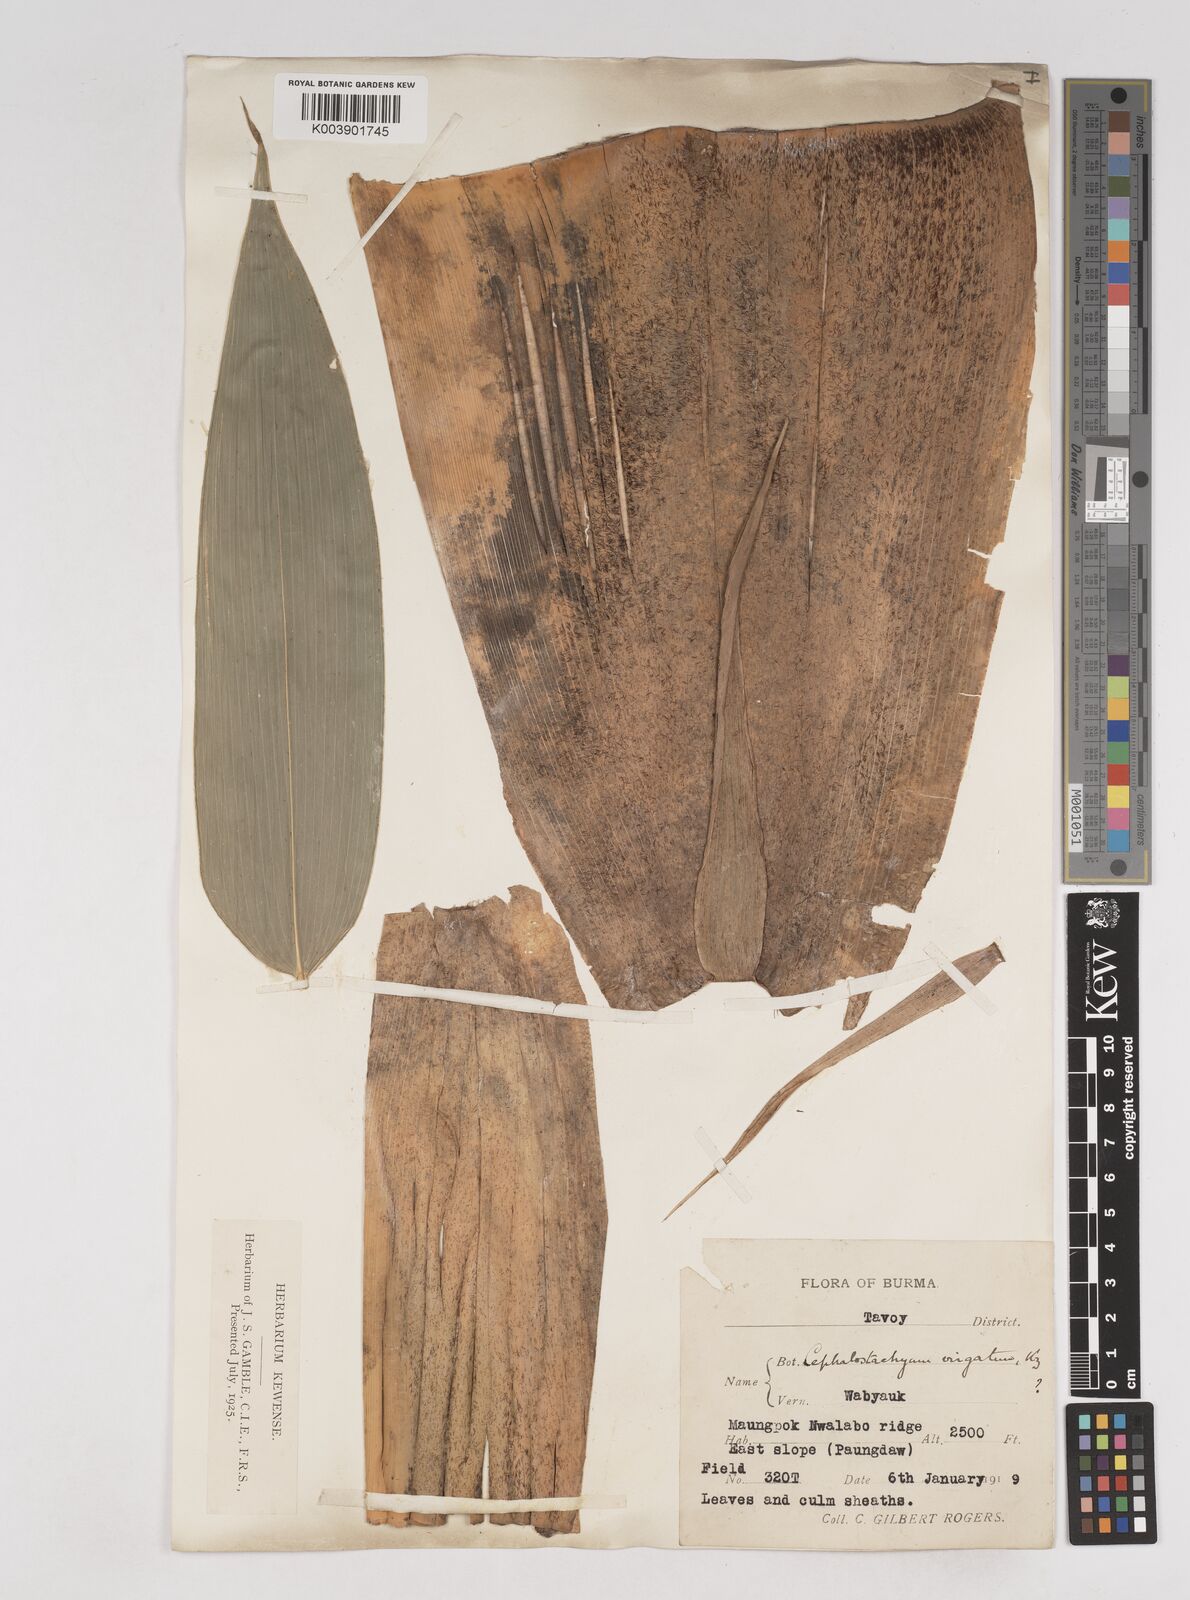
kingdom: Plantae
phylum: Tracheophyta
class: Liliopsida
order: Poales
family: Poaceae
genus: Schizostachyum
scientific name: Schizostachyum dullooa
